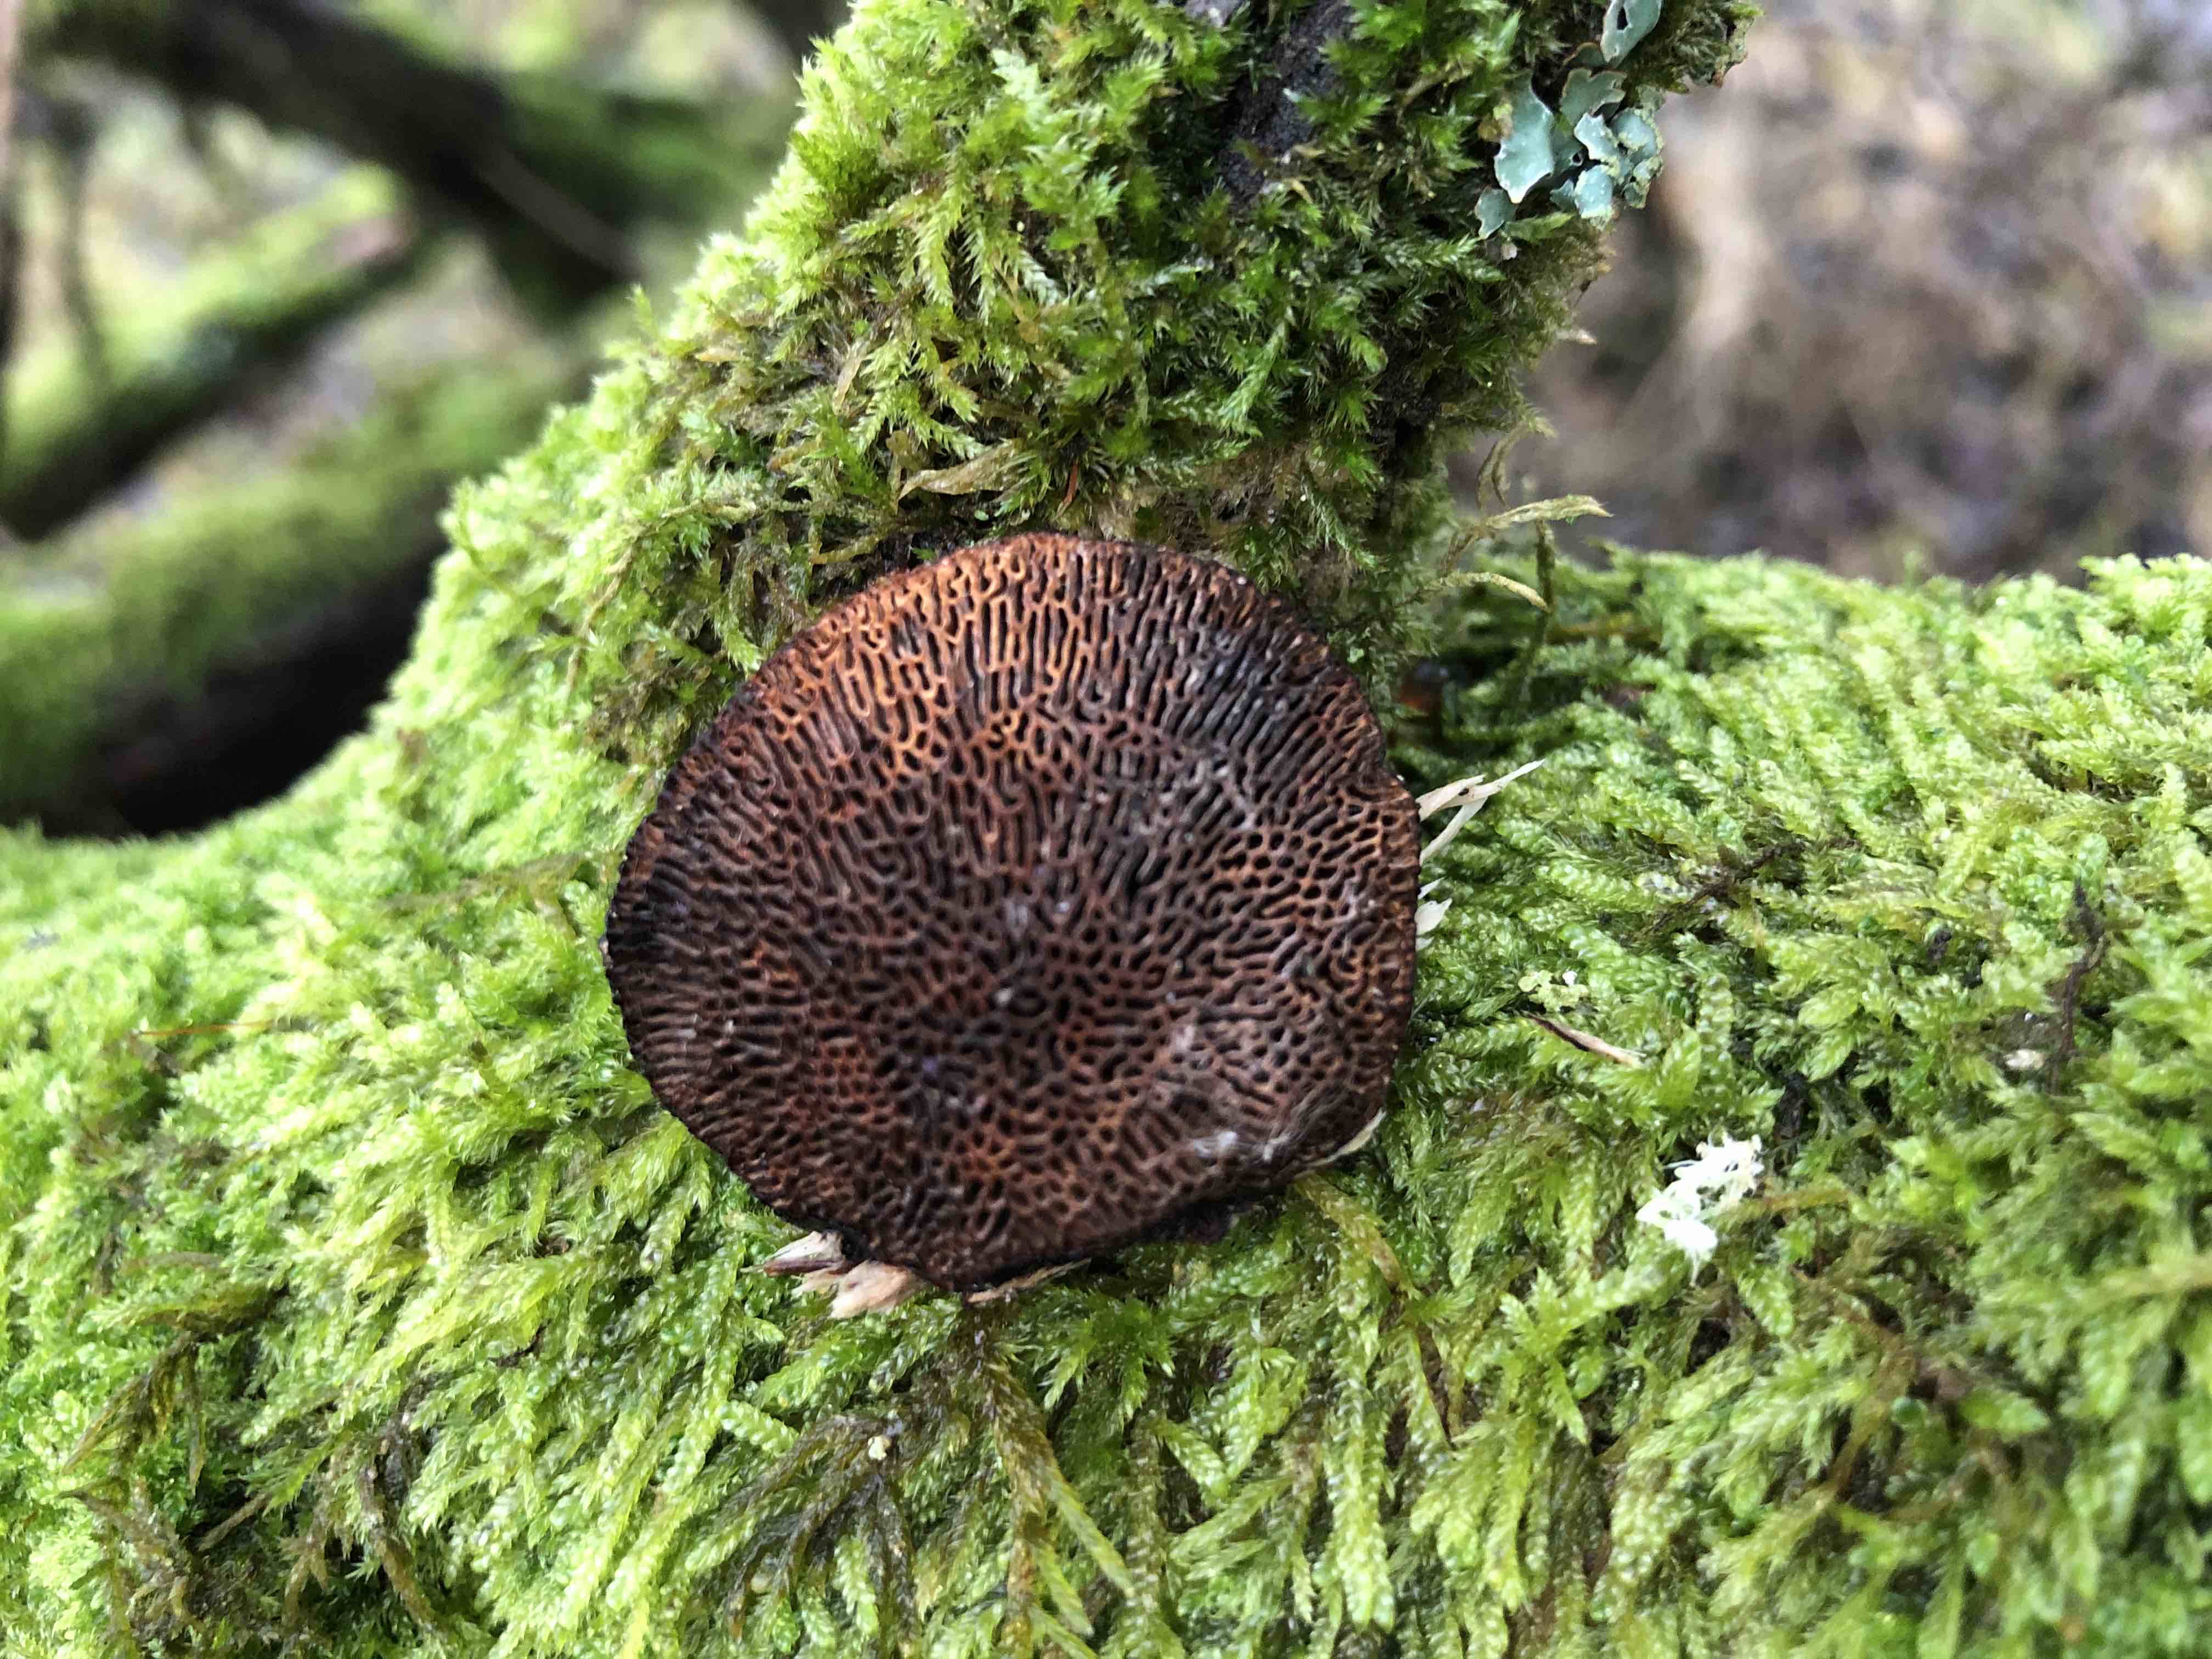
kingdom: Fungi
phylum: Basidiomycota
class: Agaricomycetes
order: Polyporales
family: Polyporaceae
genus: Daedaleopsis
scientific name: Daedaleopsis confragosa
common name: rødmende læderporesvamp
